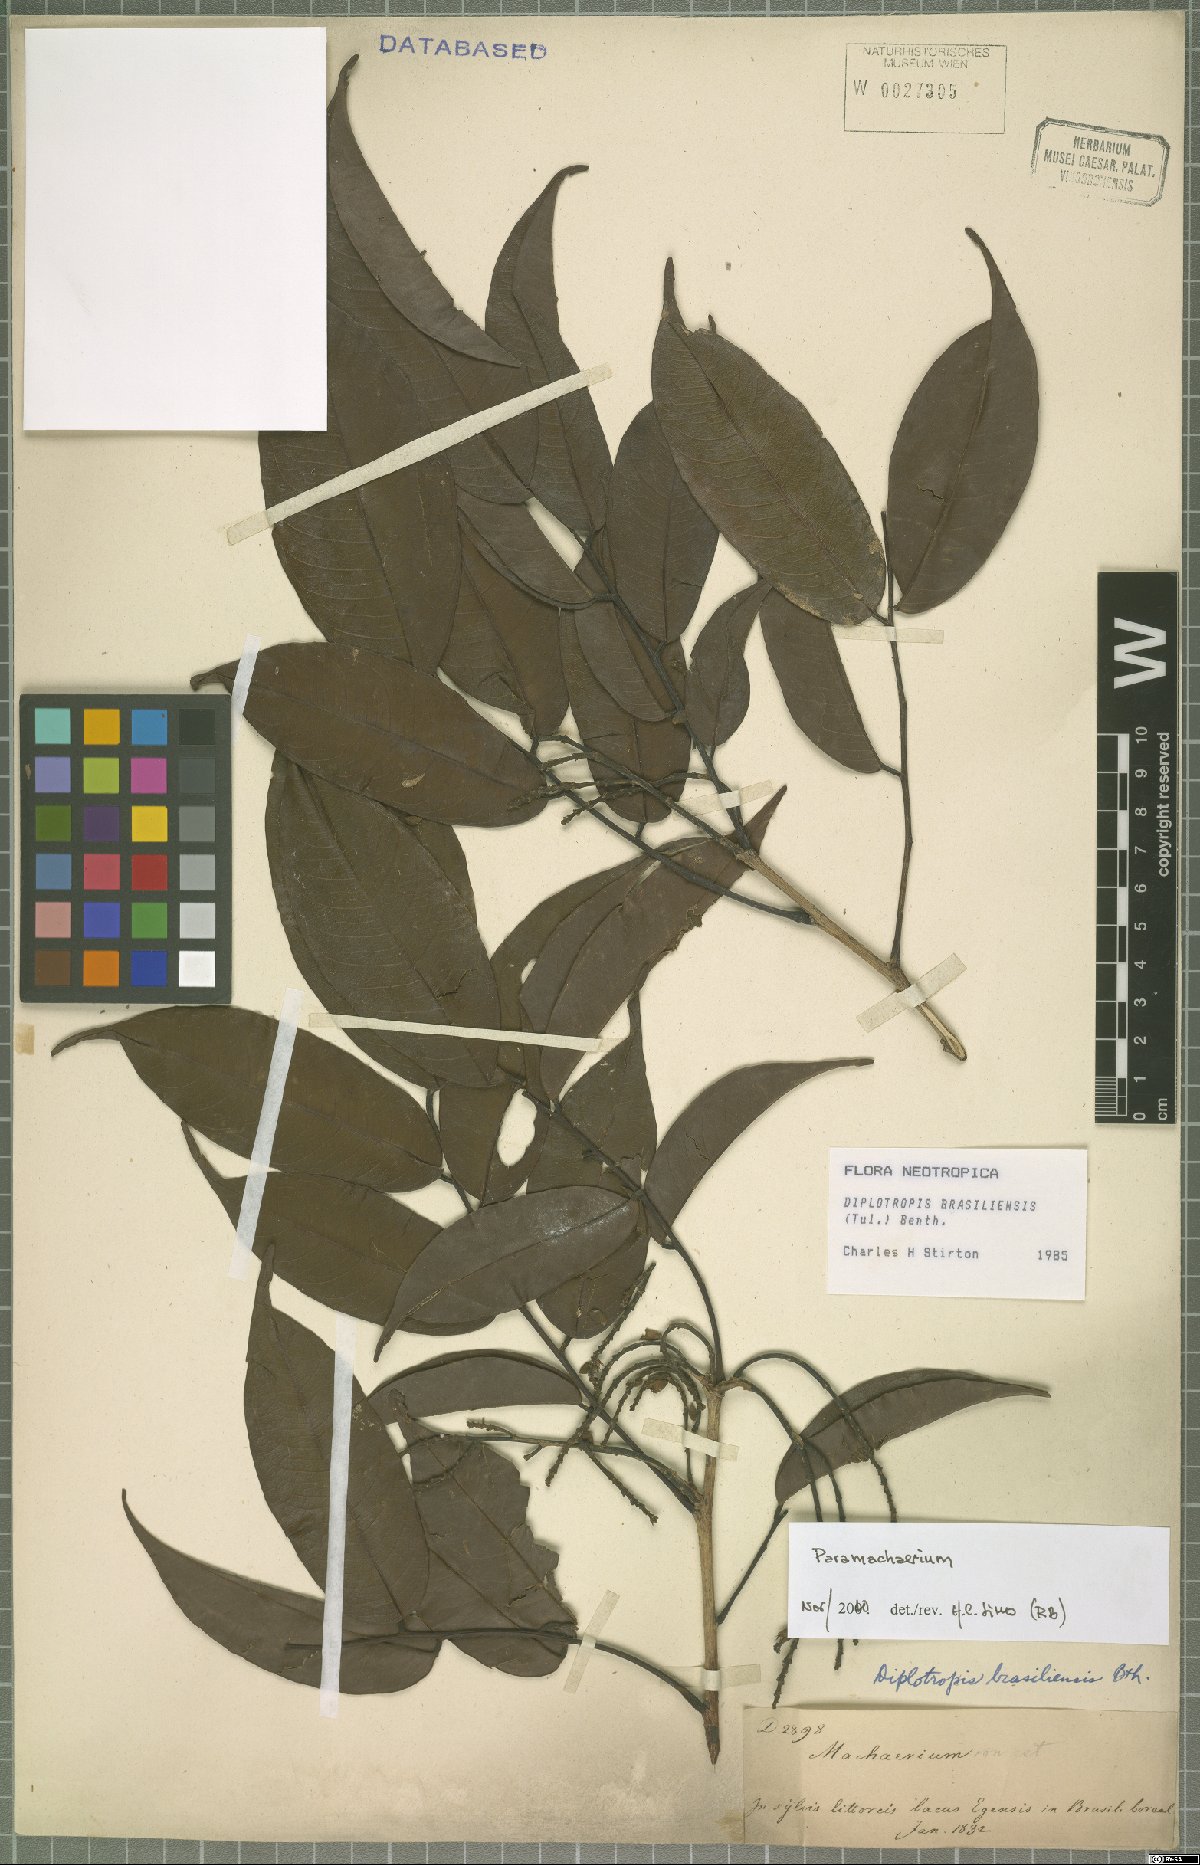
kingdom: Plantae
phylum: Tracheophyta
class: Magnoliopsida
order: Fabales
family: Fabaceae
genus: Paramachaerium
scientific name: Paramachaerium
